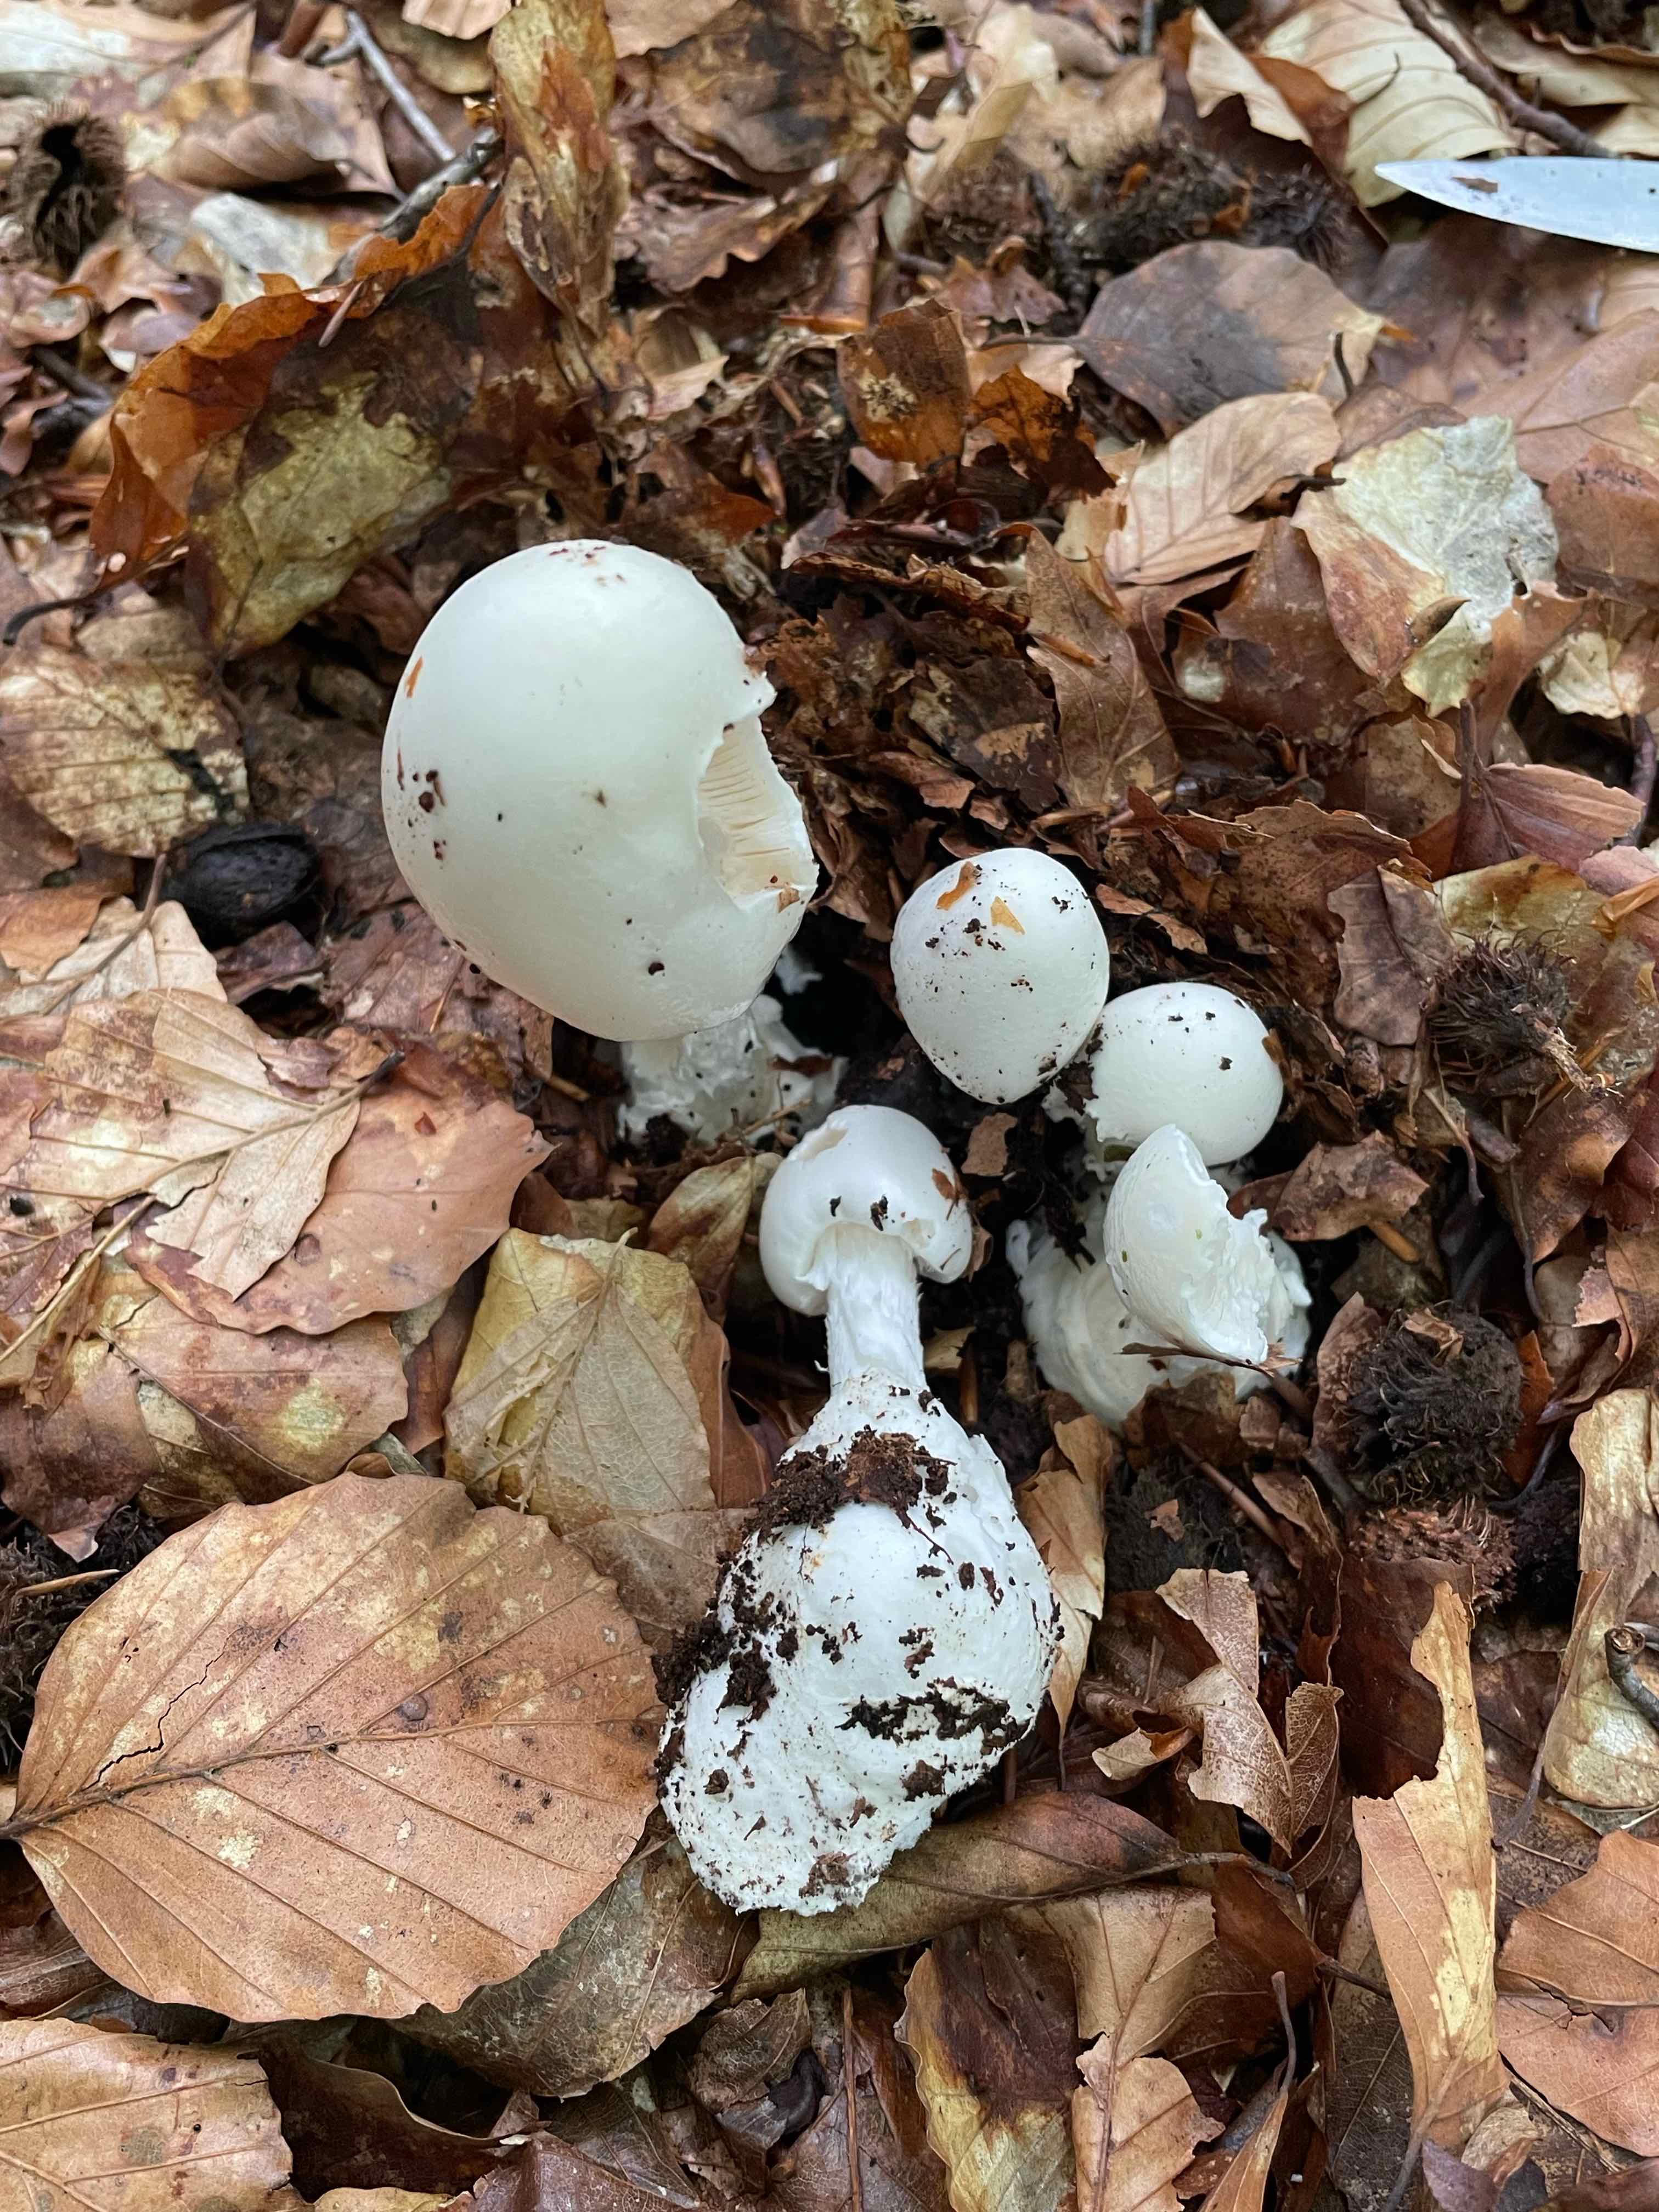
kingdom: Fungi
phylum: Basidiomycota
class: Agaricomycetes
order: Agaricales
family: Amanitaceae
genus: Amanita
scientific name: Amanita virosa
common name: snehvid fluesvamp
